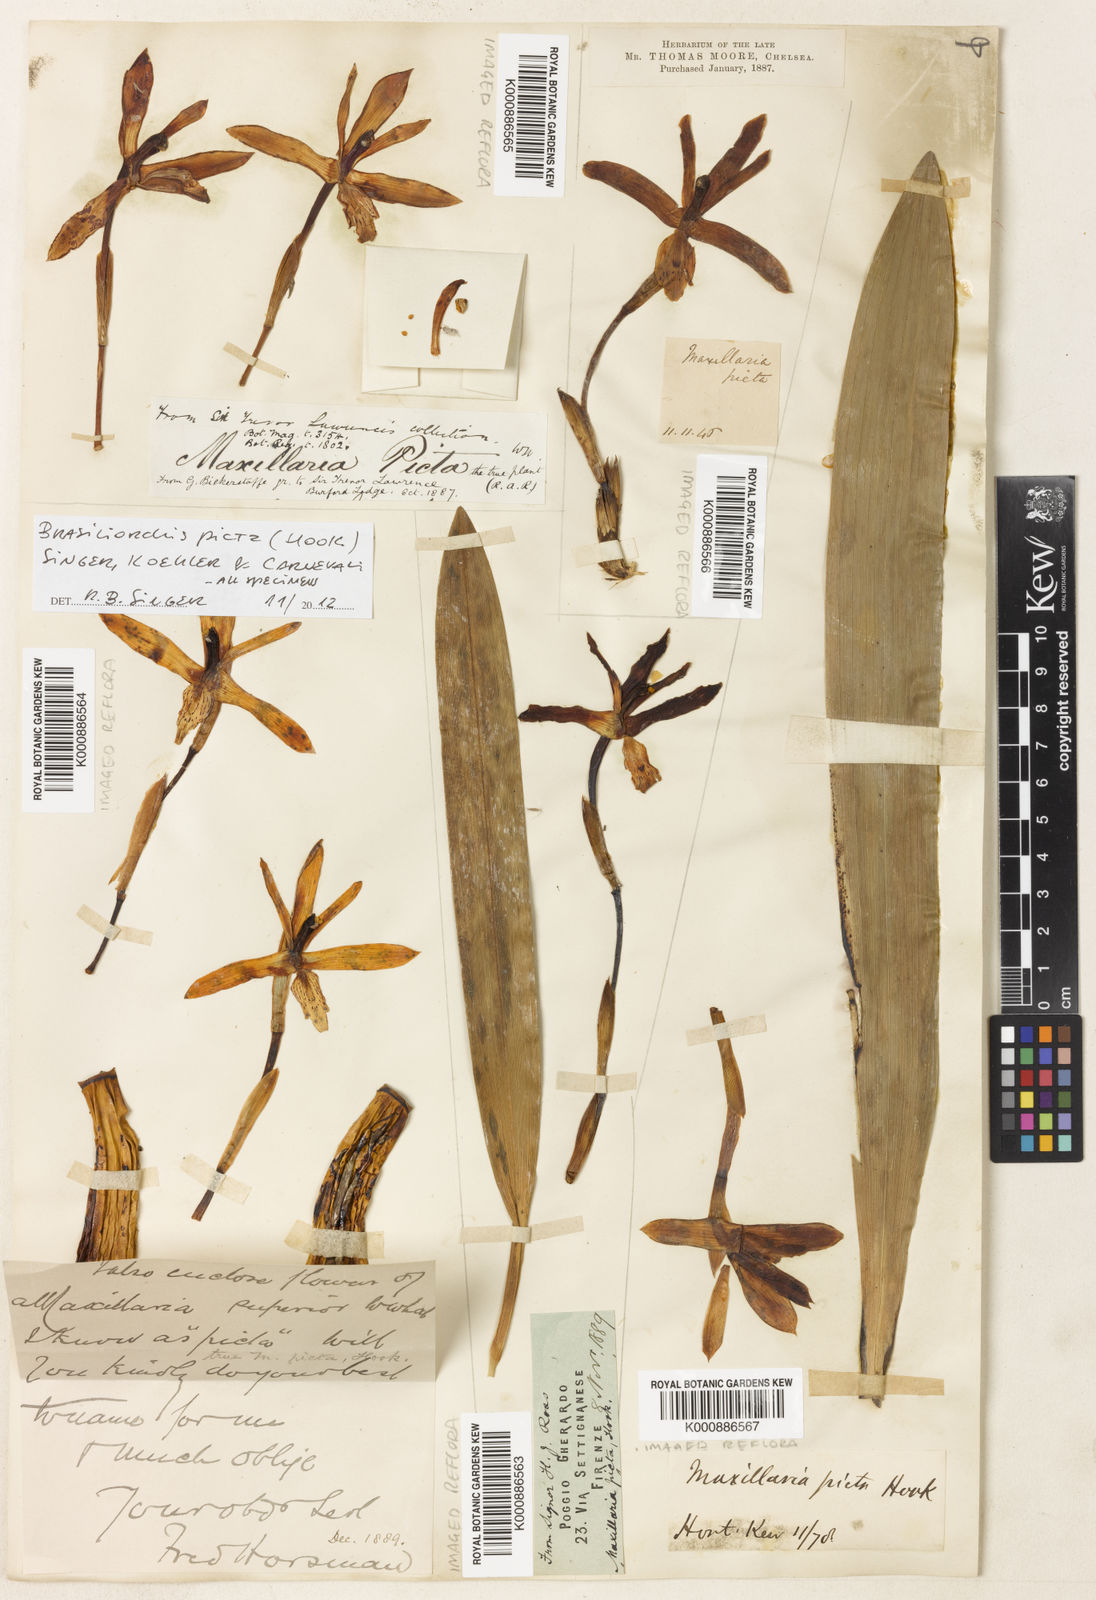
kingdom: Plantae
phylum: Tracheophyta
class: Liliopsida
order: Asparagales
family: Orchidaceae
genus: Maxillaria
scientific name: Maxillaria
